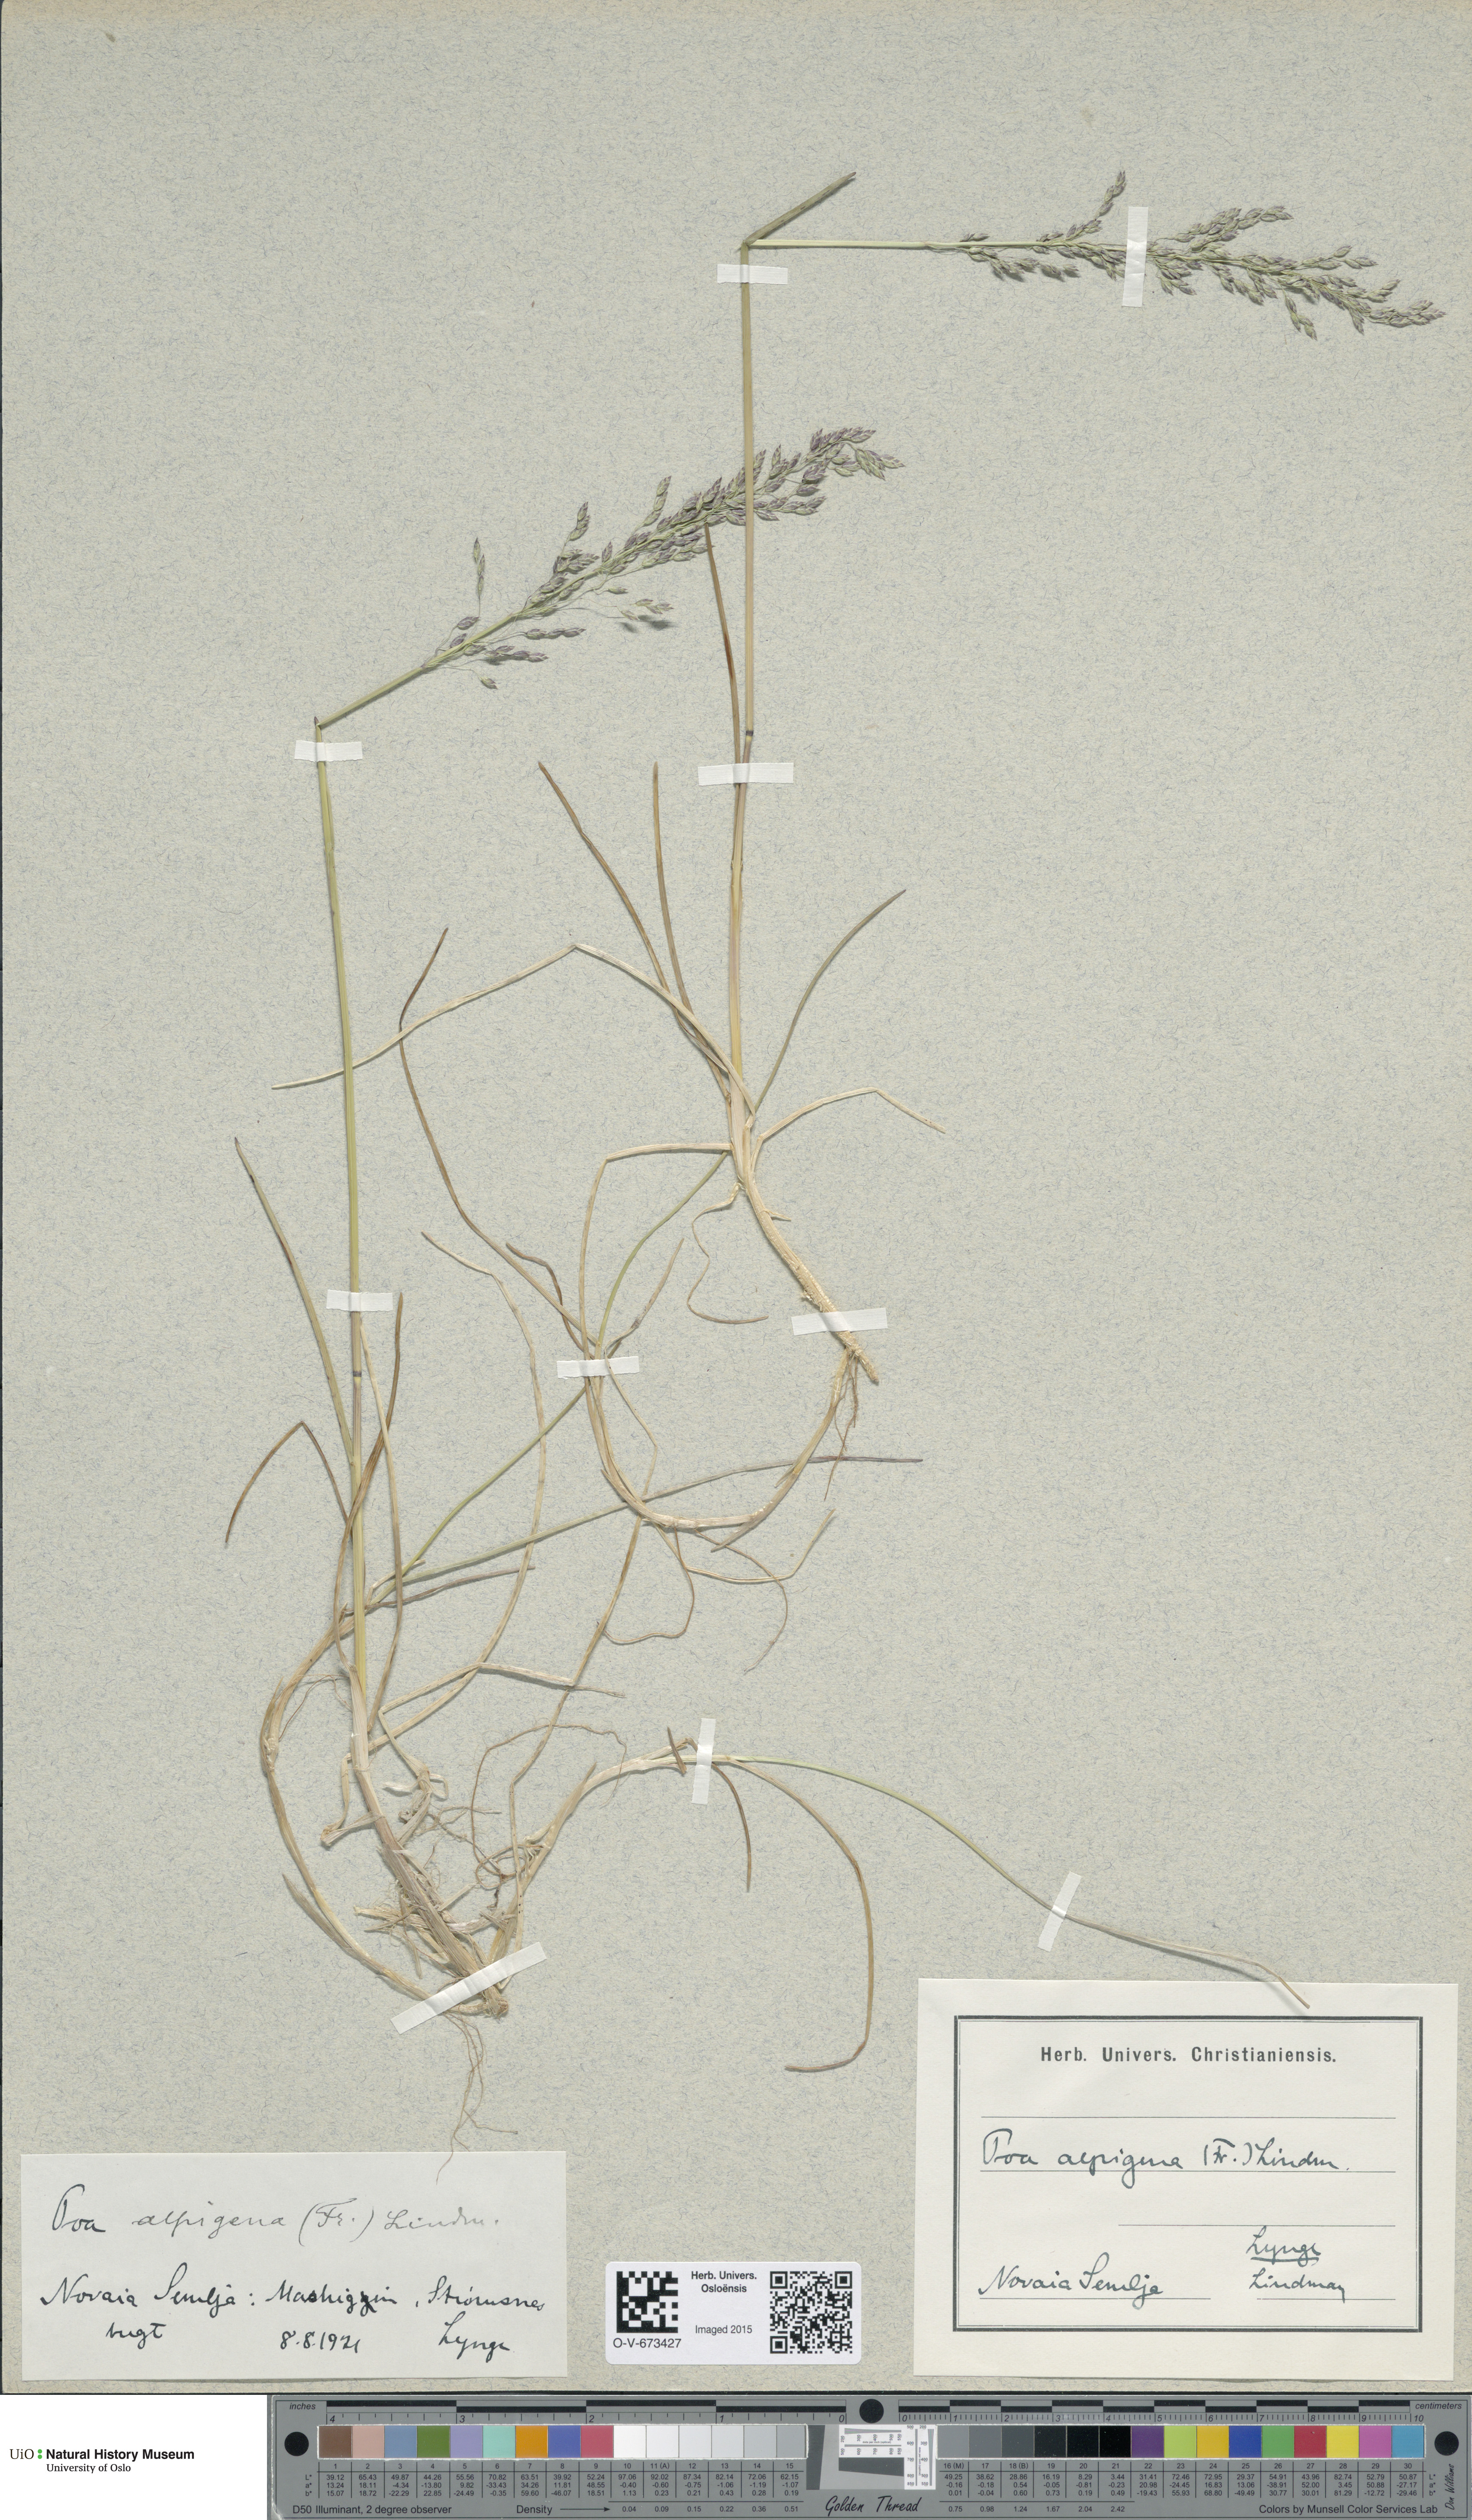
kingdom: Plantae
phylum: Tracheophyta
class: Liliopsida
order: Poales
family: Poaceae
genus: Poa
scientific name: Poa alpigena
